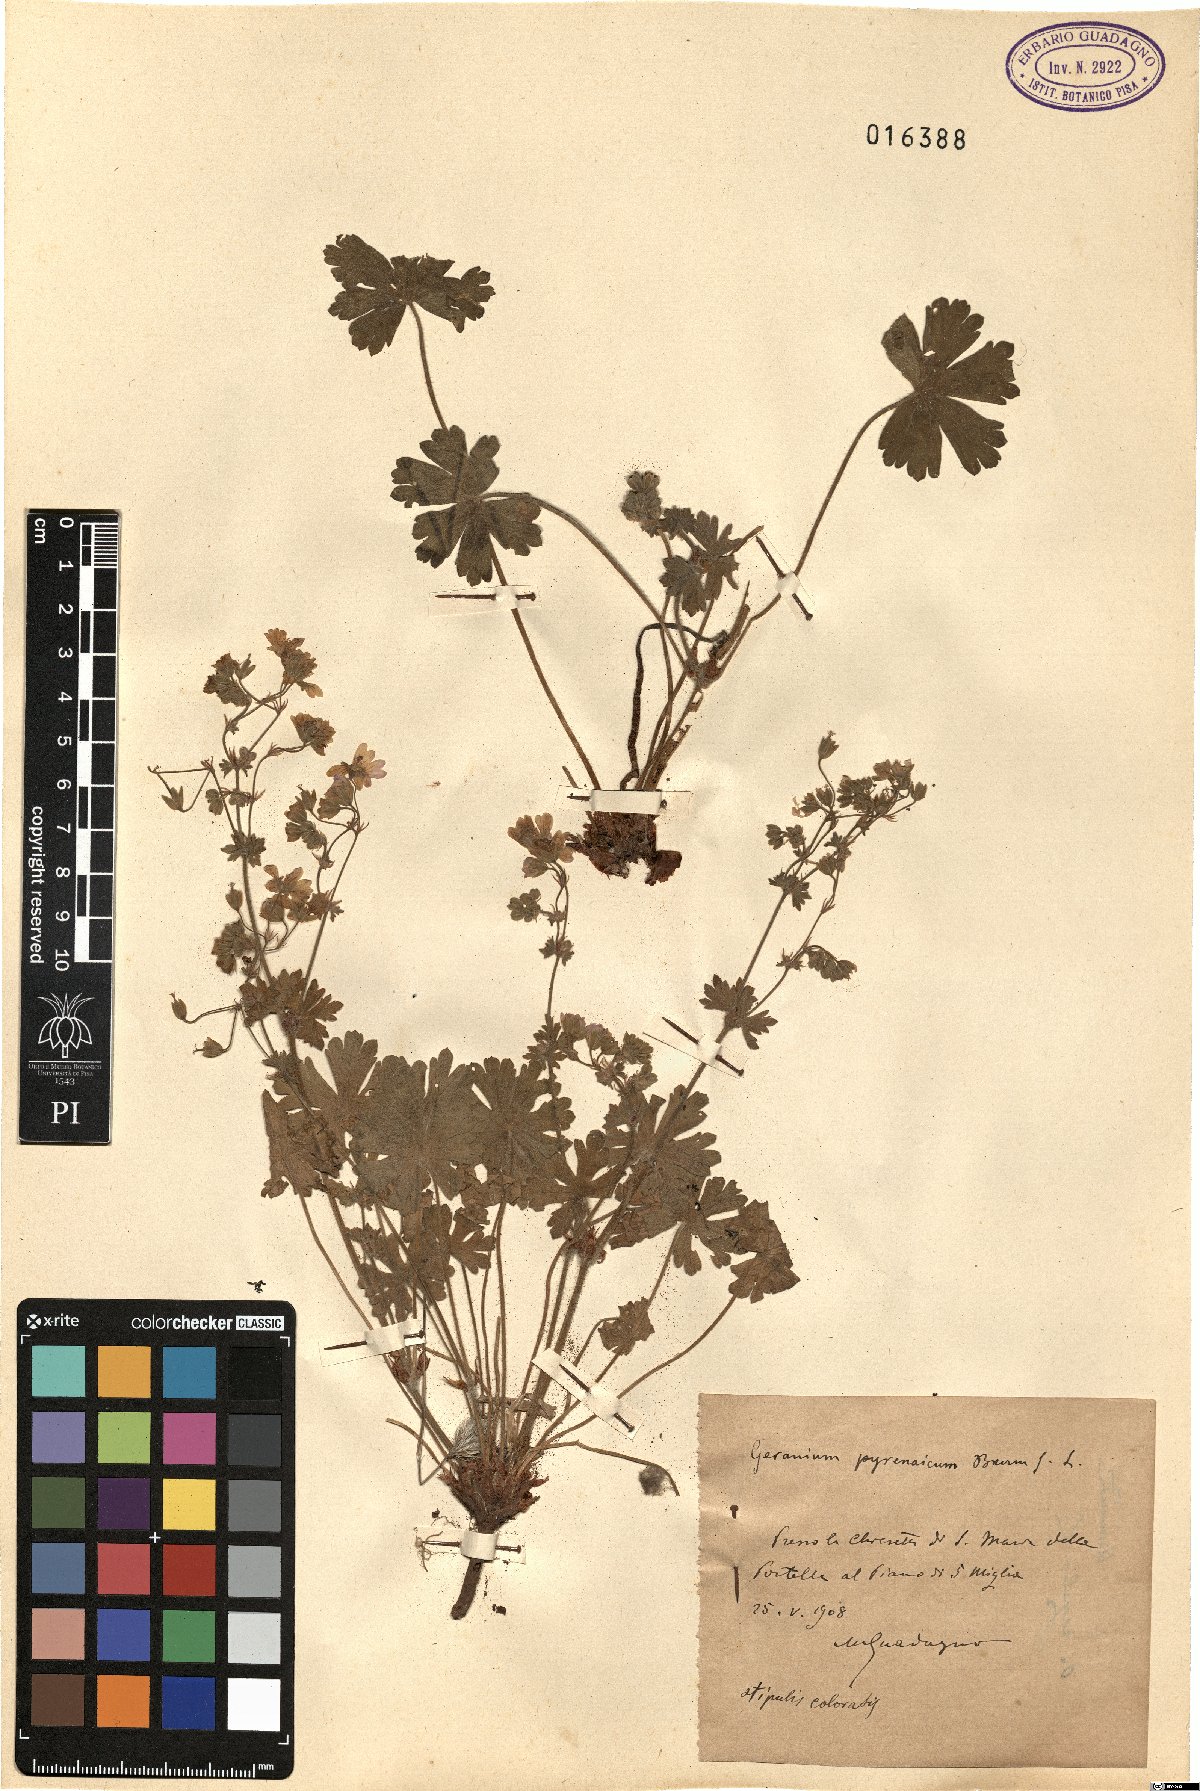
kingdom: Plantae
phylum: Tracheophyta
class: Magnoliopsida
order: Geraniales
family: Geraniaceae
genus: Geranium
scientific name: Geranium pyrenaicum
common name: Hedgerow crane's-bill
